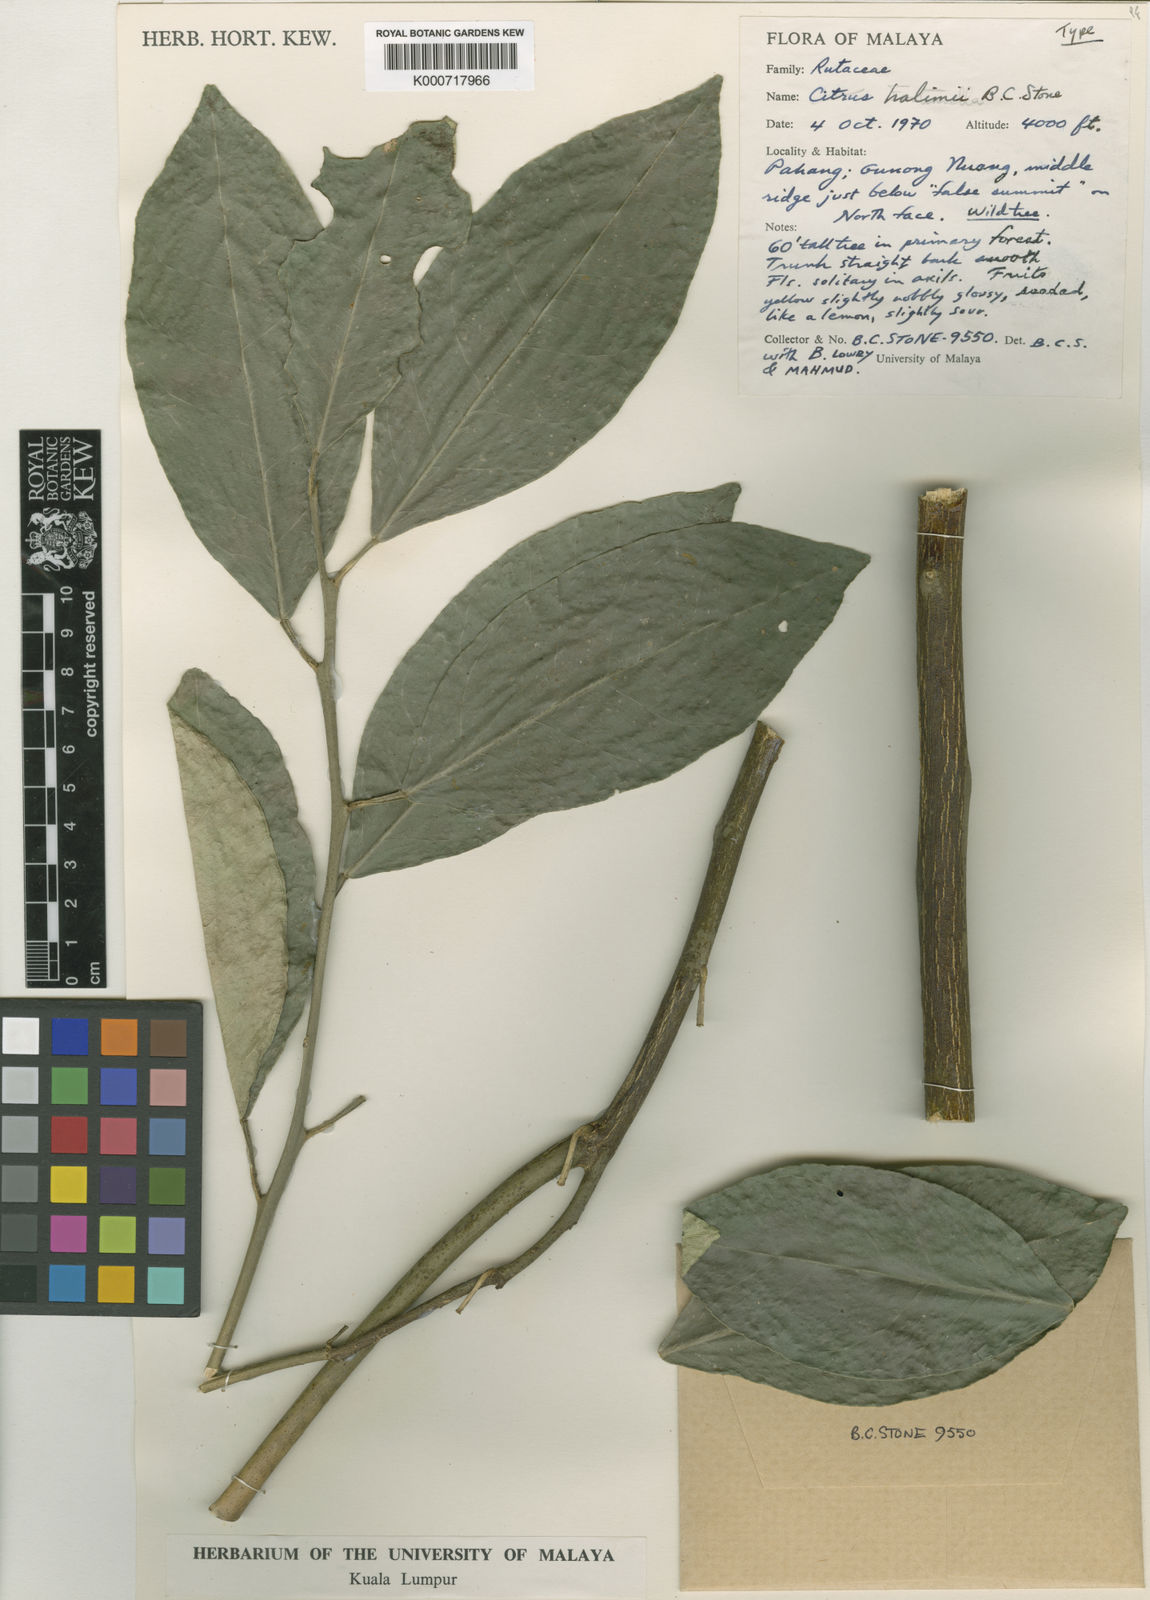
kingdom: Plantae
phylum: Tracheophyta
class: Magnoliopsida
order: Sapindales
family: Rutaceae
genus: Citrus
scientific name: Citrus halimii
